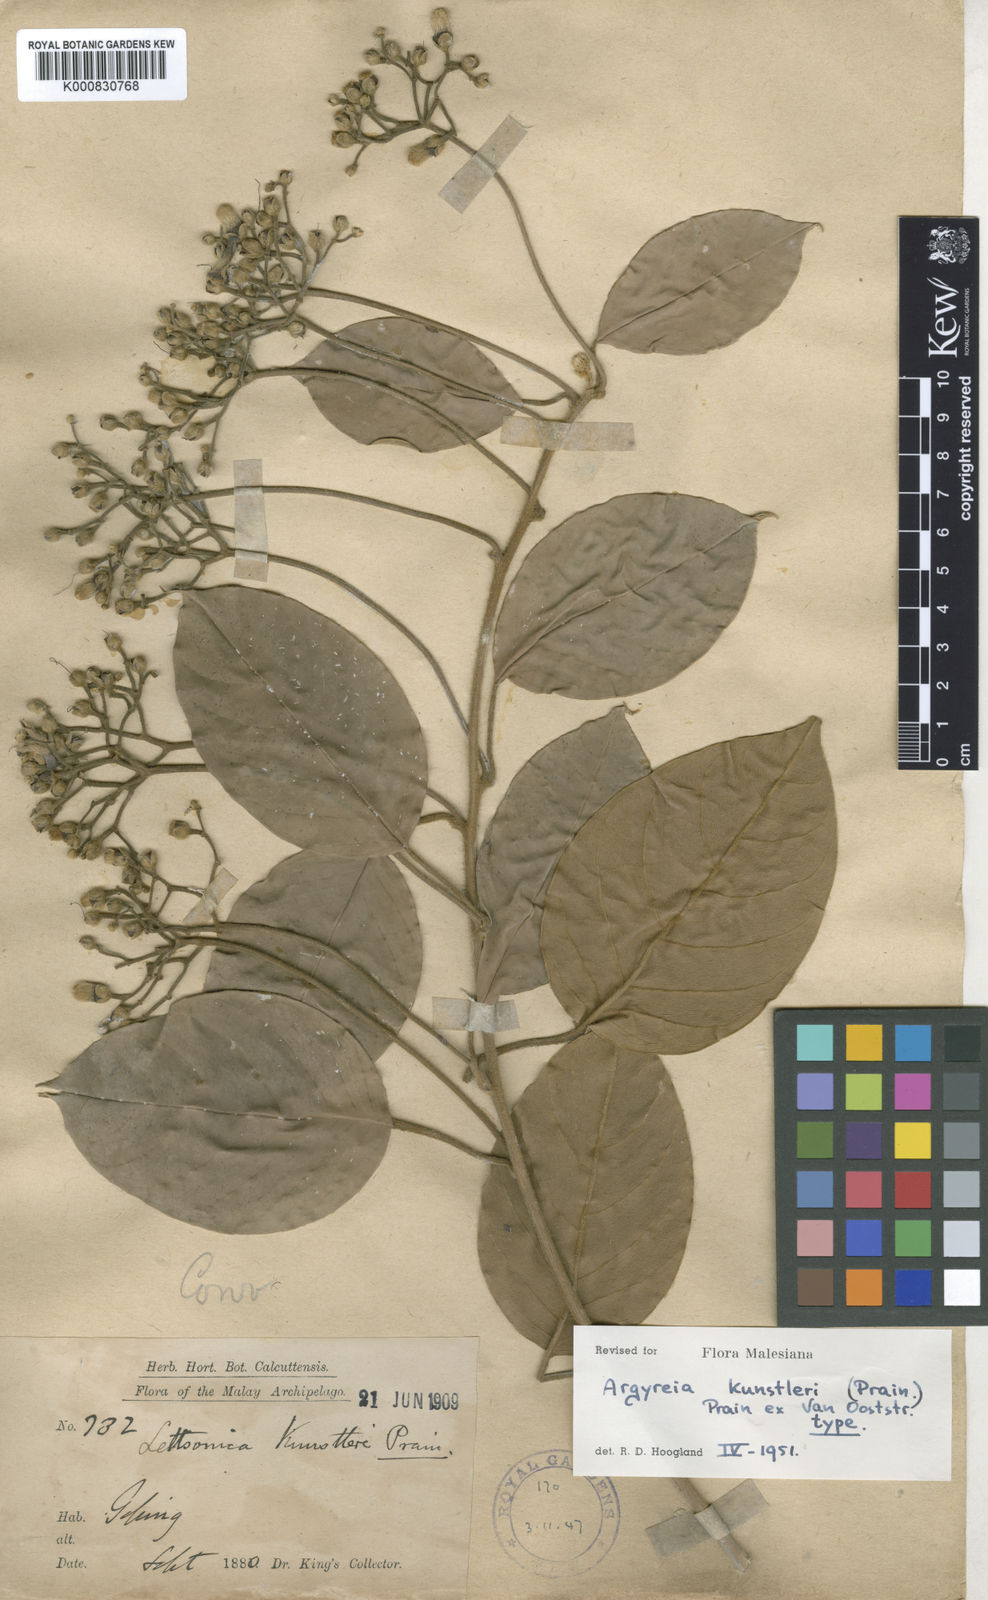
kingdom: Plantae
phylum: Tracheophyta
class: Magnoliopsida
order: Solanales
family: Convolvulaceae
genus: Argyreia
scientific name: Argyreia kunstleri
